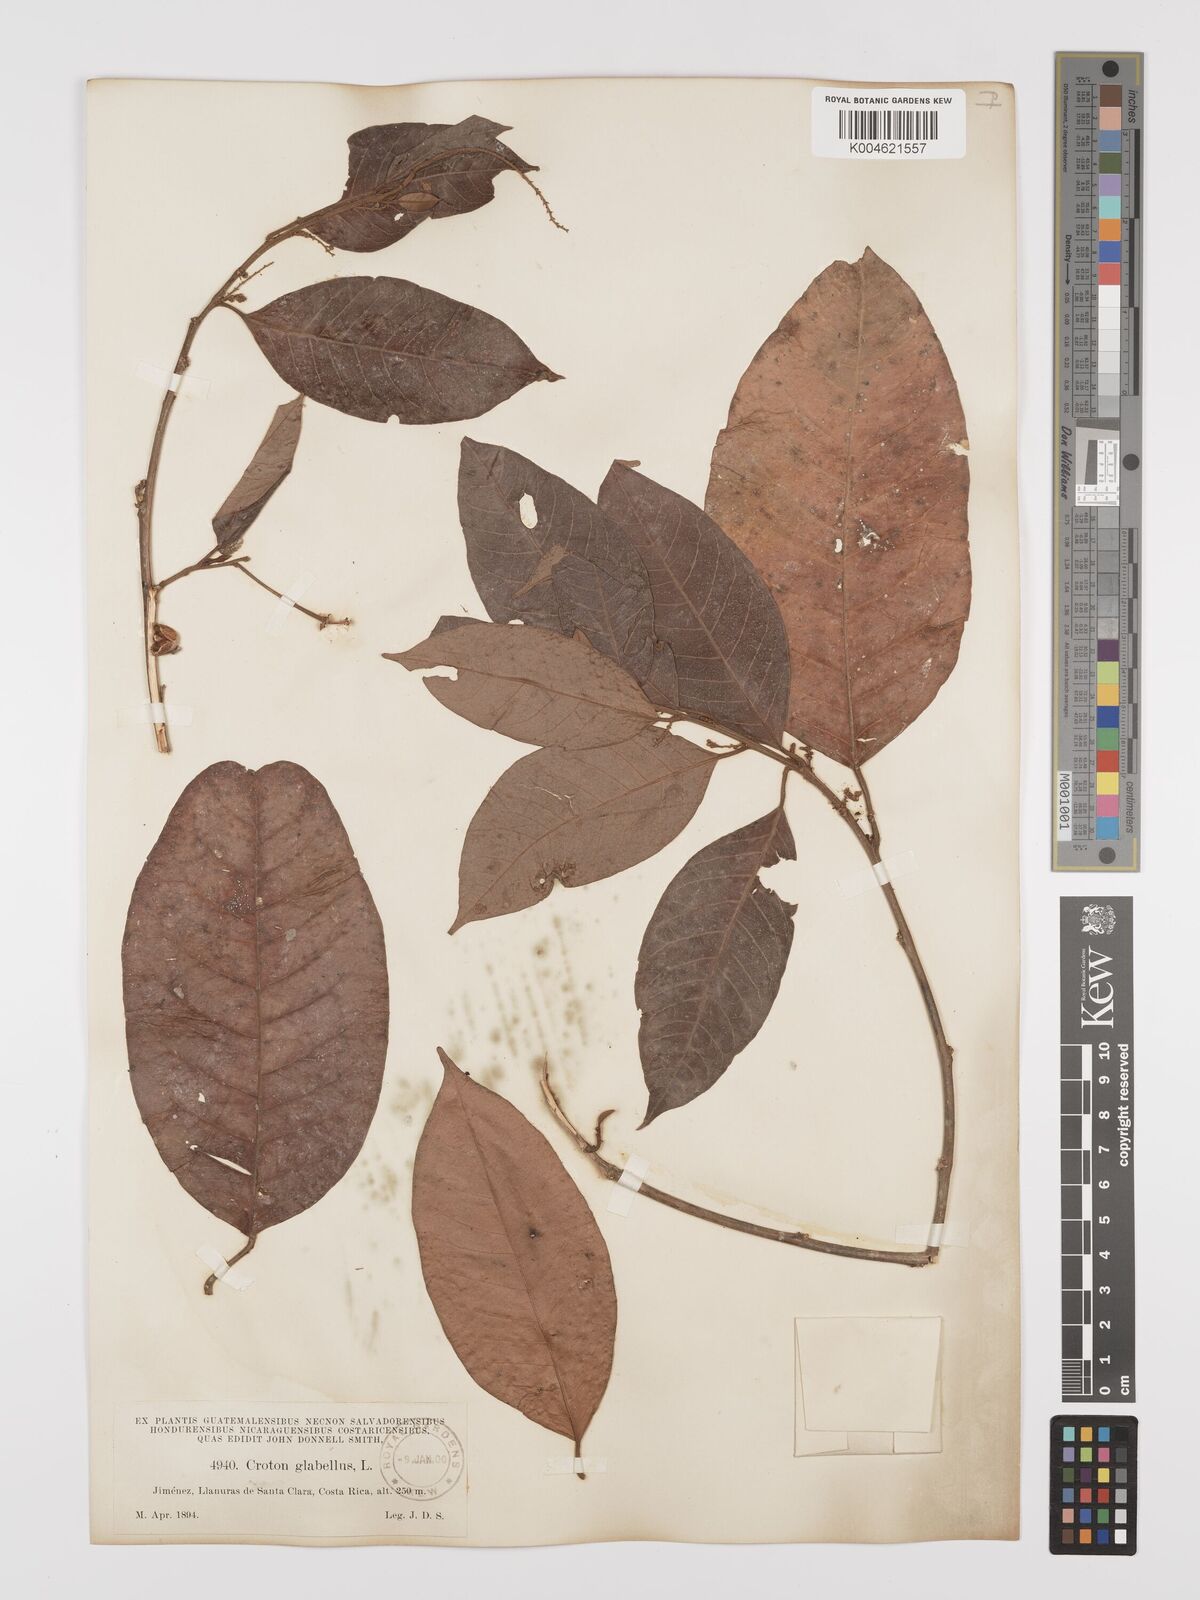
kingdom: Plantae
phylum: Tracheophyta
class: Magnoliopsida
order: Malpighiales
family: Euphorbiaceae
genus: Croton
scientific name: Croton glabellus
